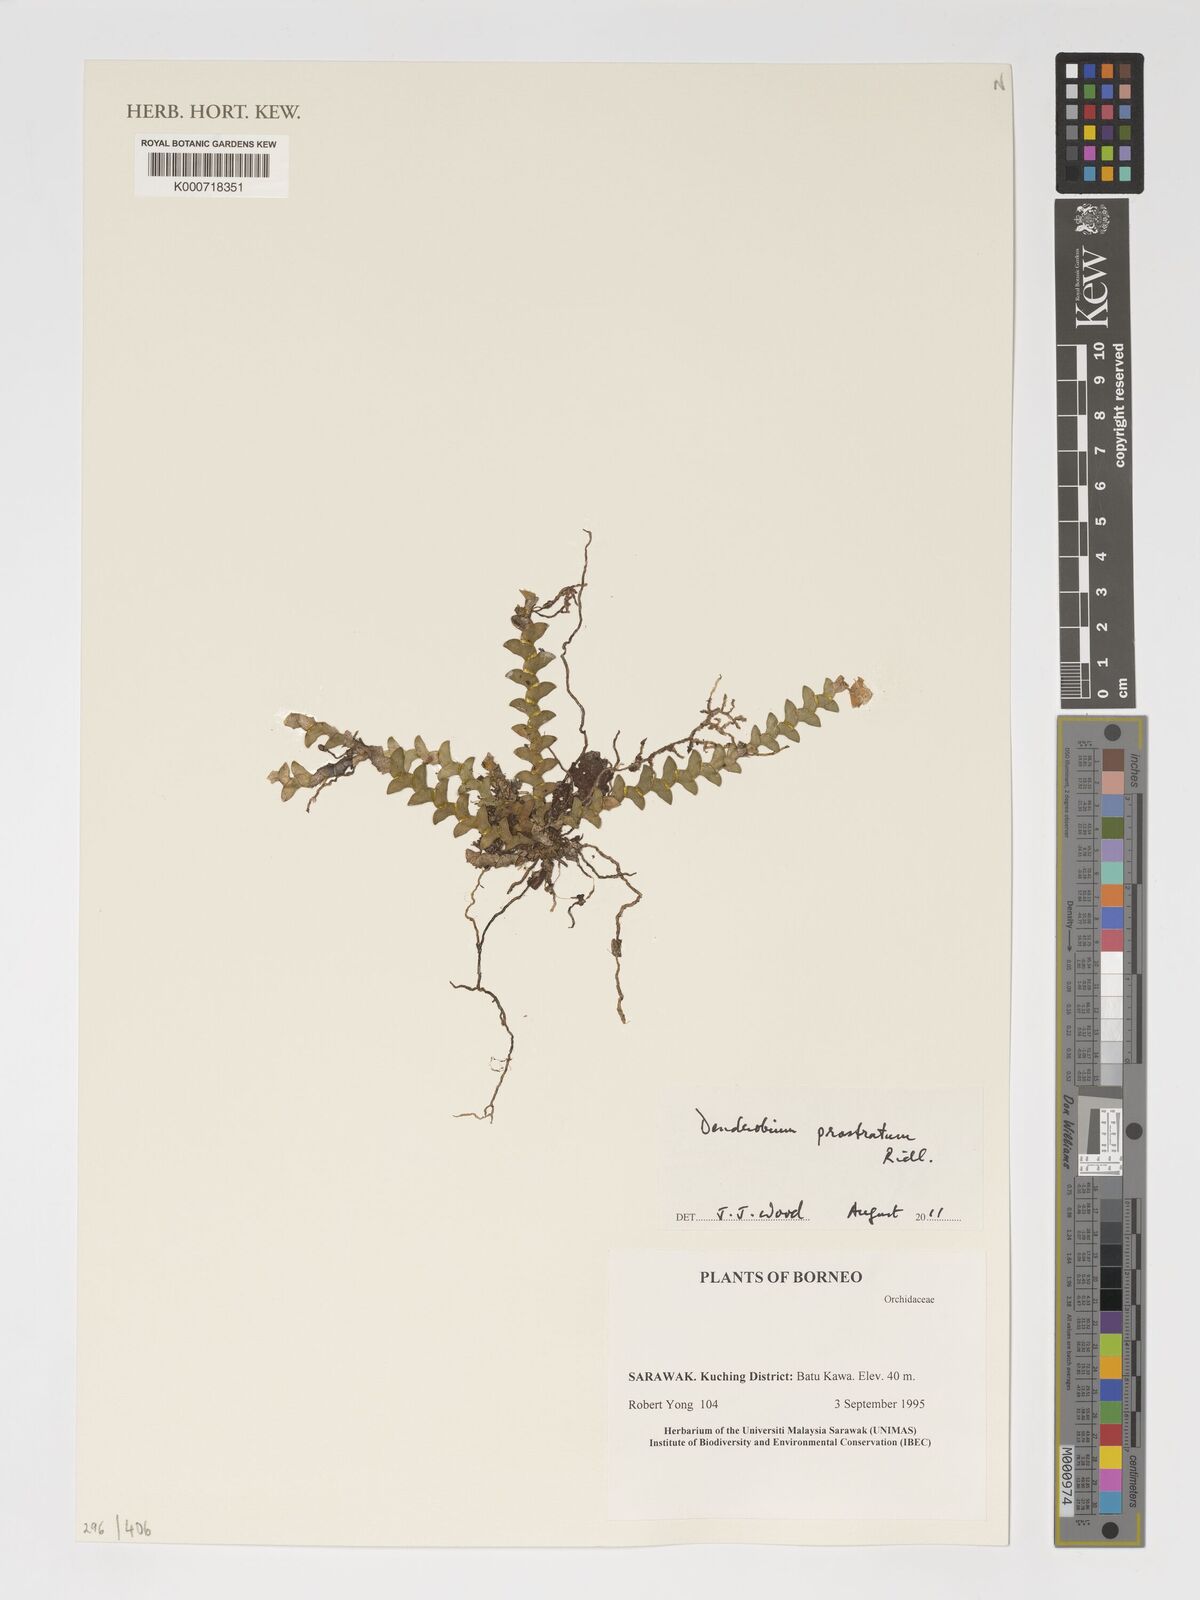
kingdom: Plantae
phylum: Tracheophyta
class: Liliopsida
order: Asparagales
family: Orchidaceae
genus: Dendrobium
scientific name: Dendrobium prostratum
